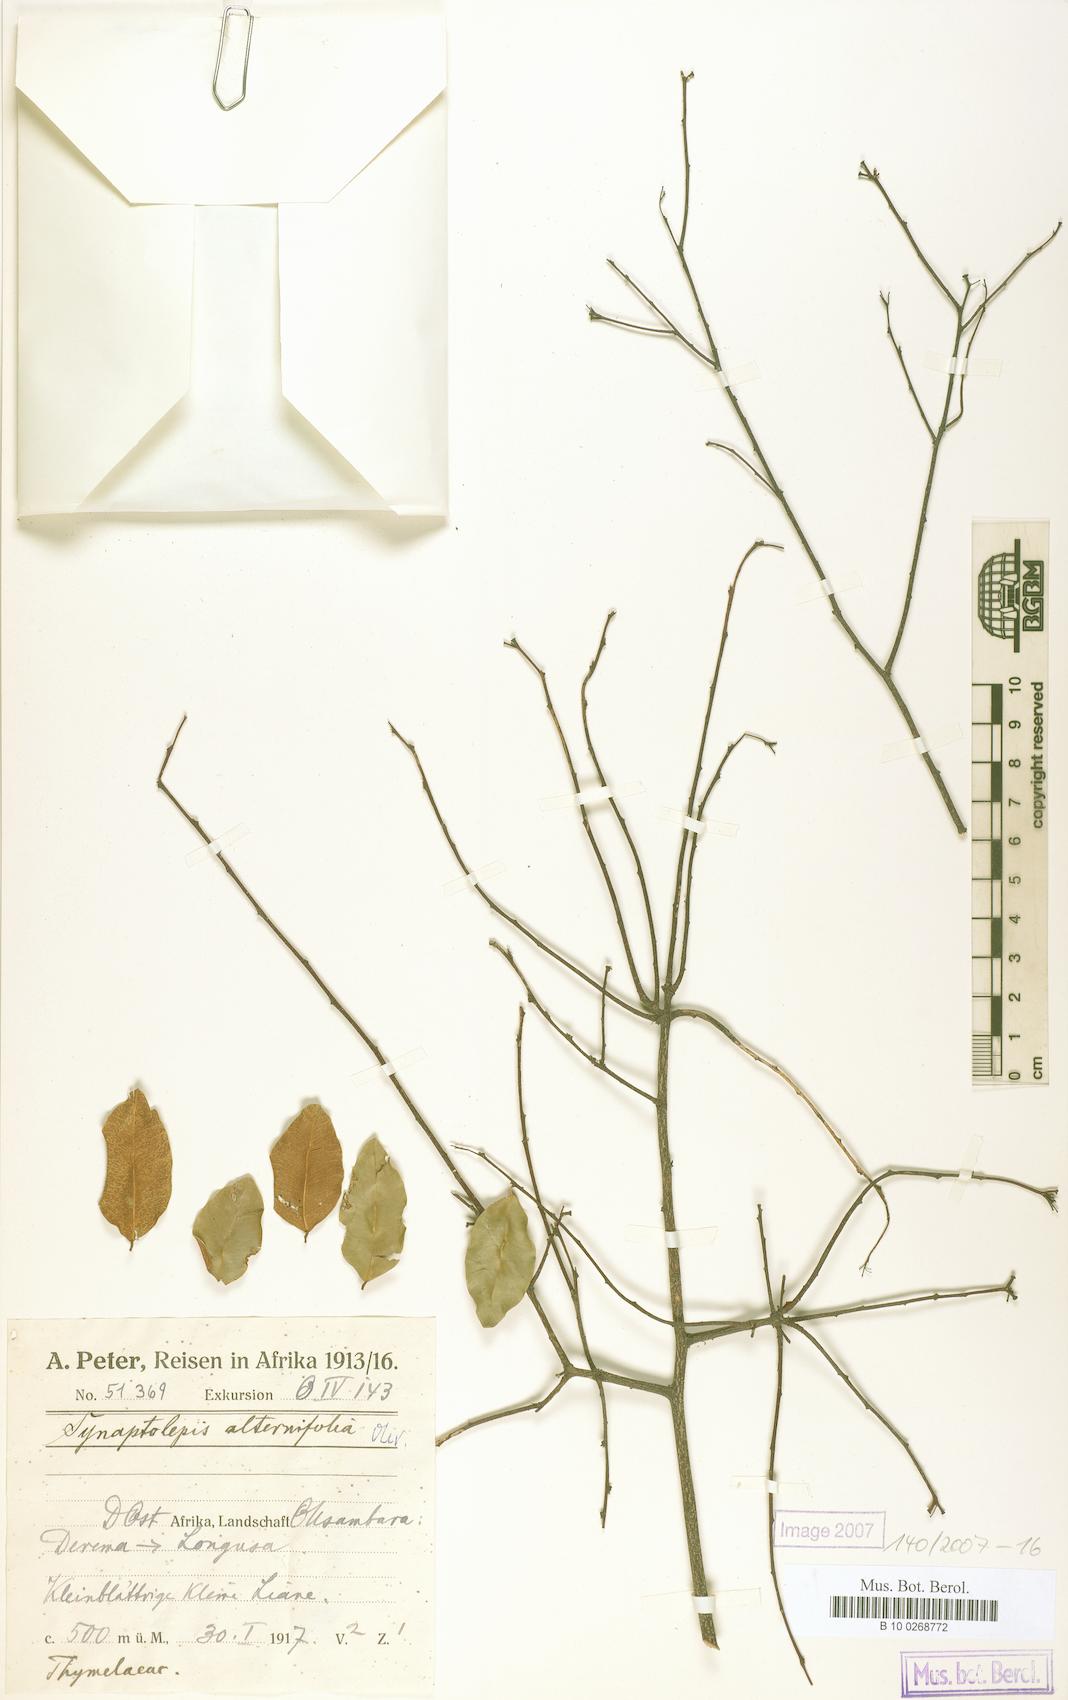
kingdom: Plantae
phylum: Tracheophyta
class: Magnoliopsida
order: Malvales
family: Thymelaeaceae
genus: Synaptolepis
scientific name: Synaptolepis alternifolia
